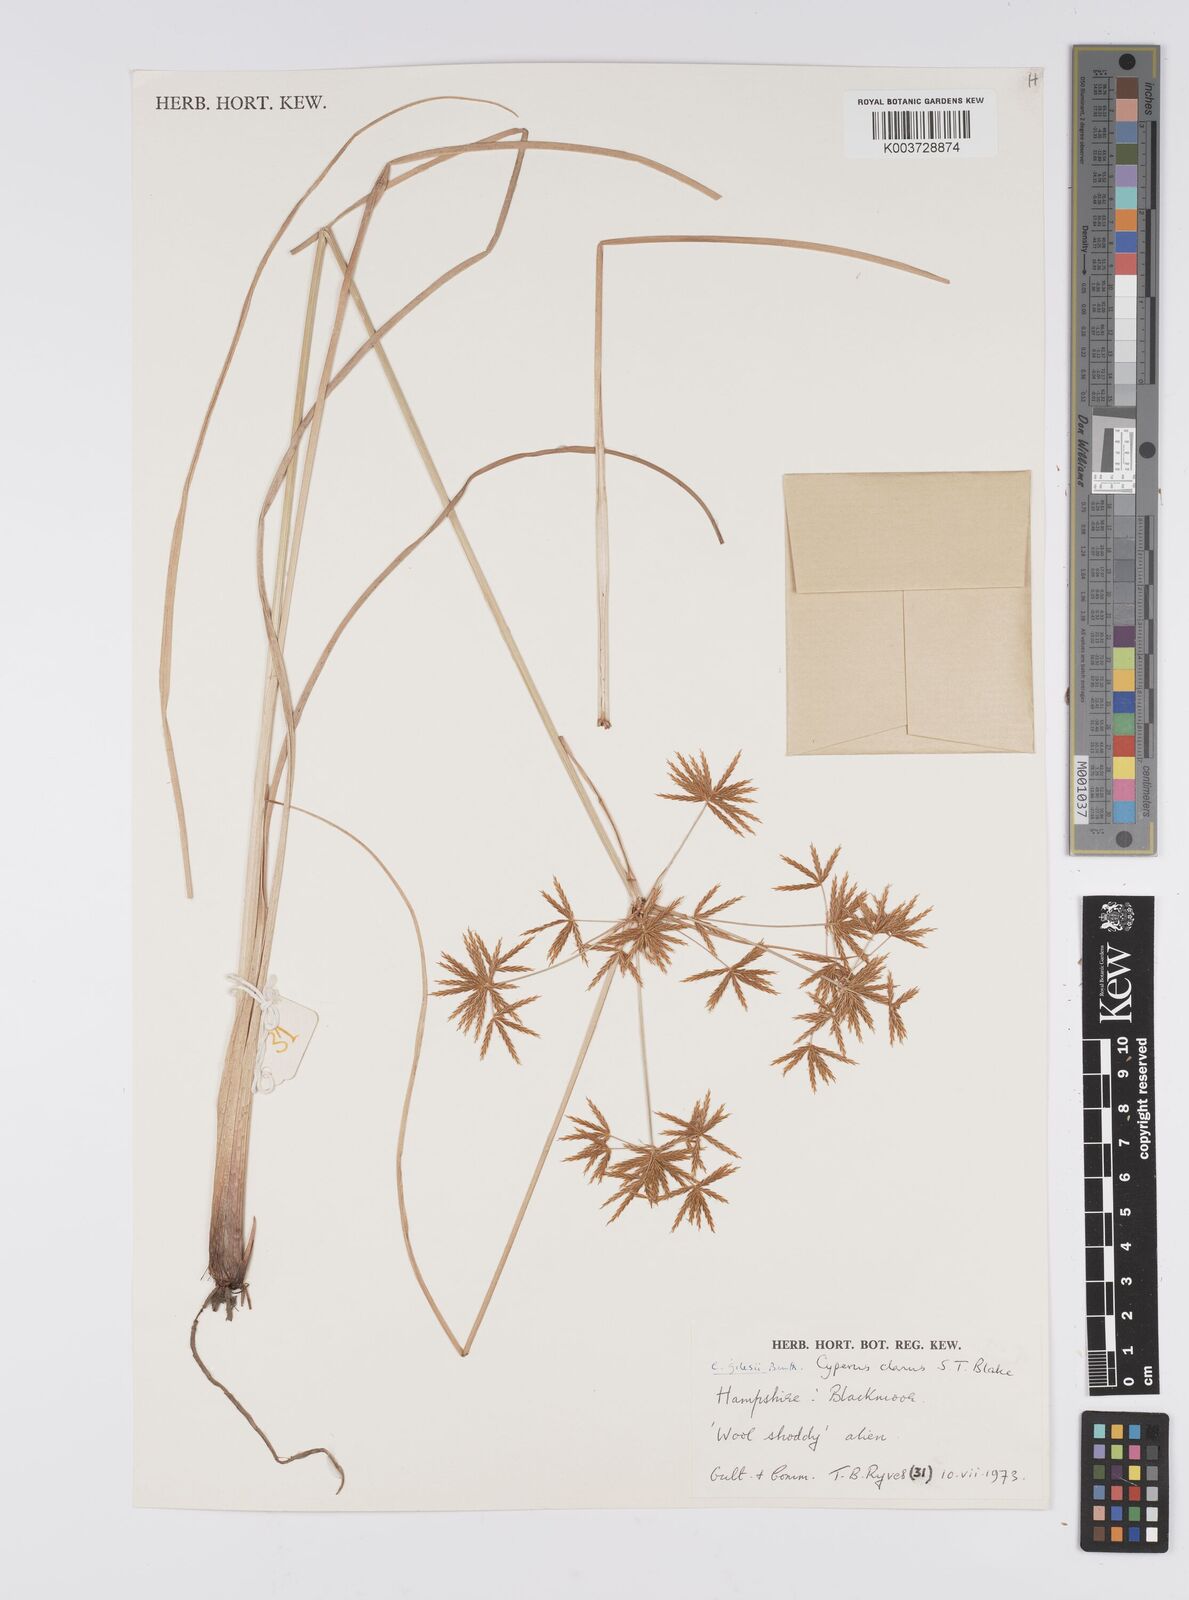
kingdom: Plantae
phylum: Tracheophyta
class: Liliopsida
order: Poales
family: Cyperaceae
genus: Cyperus
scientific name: Cyperus clarus
